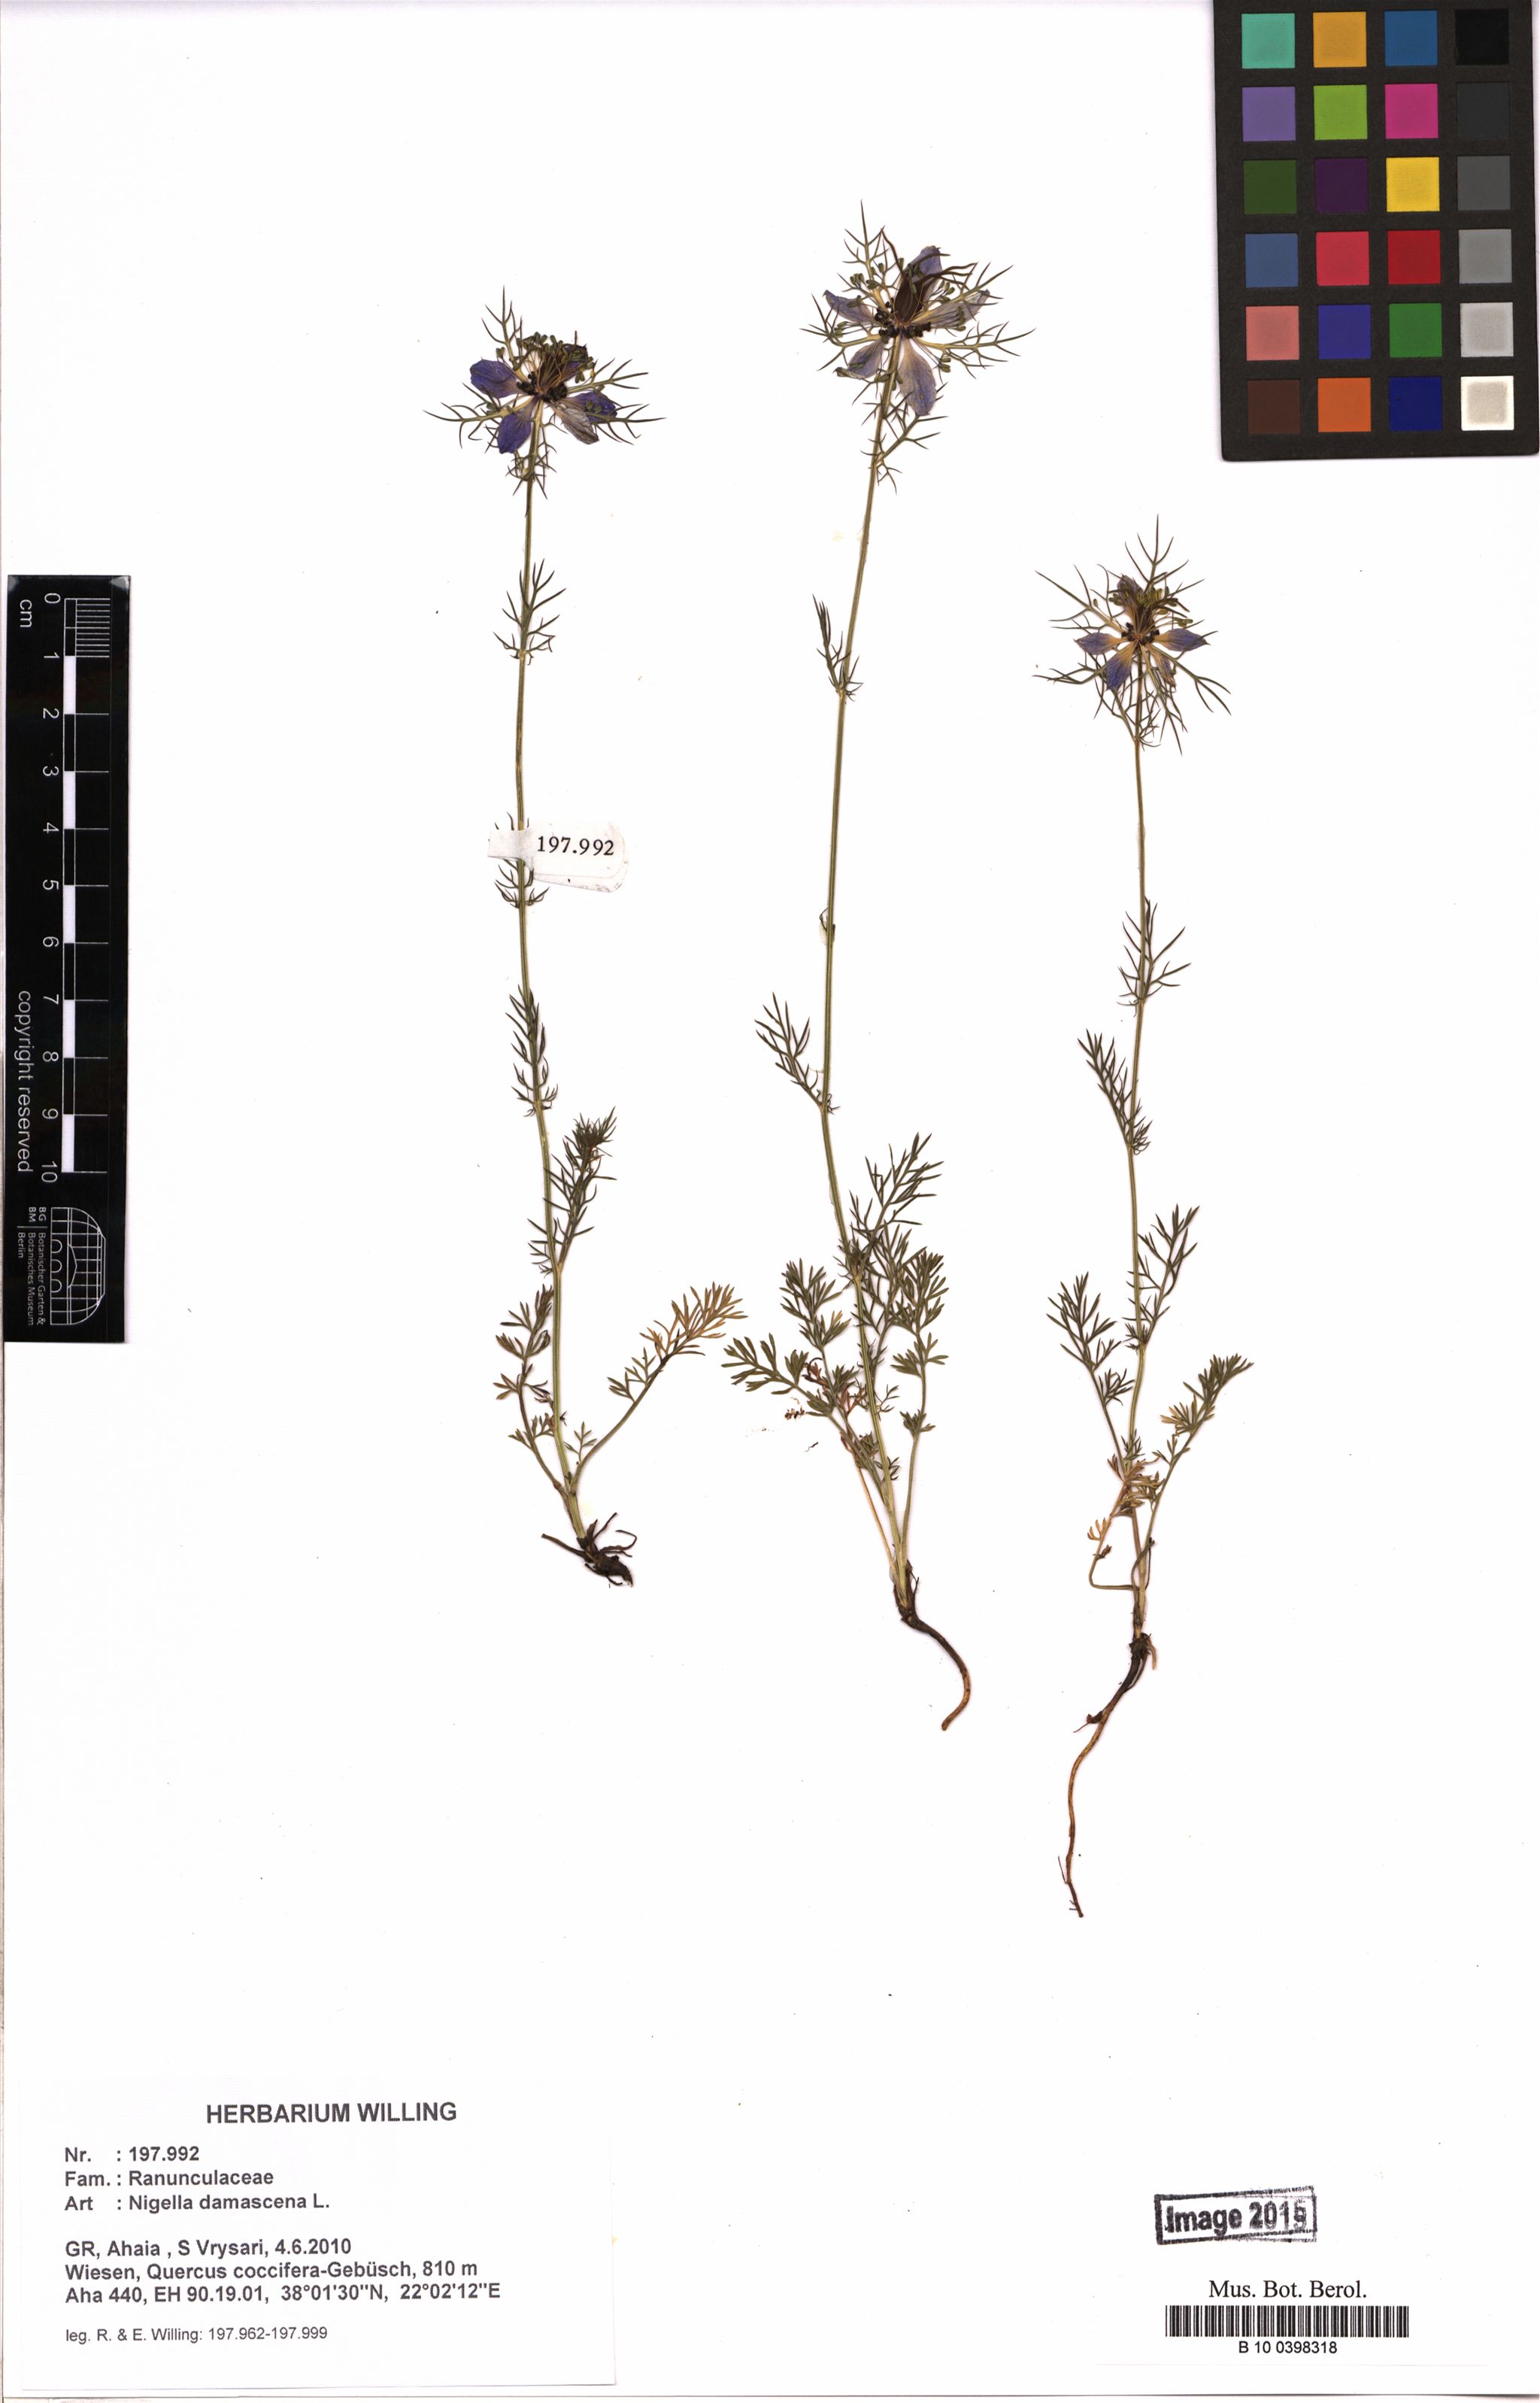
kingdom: Plantae
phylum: Tracheophyta
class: Magnoliopsida
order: Ranunculales
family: Ranunculaceae
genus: Nigella
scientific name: Nigella damascena
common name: Love-in-a-mist
